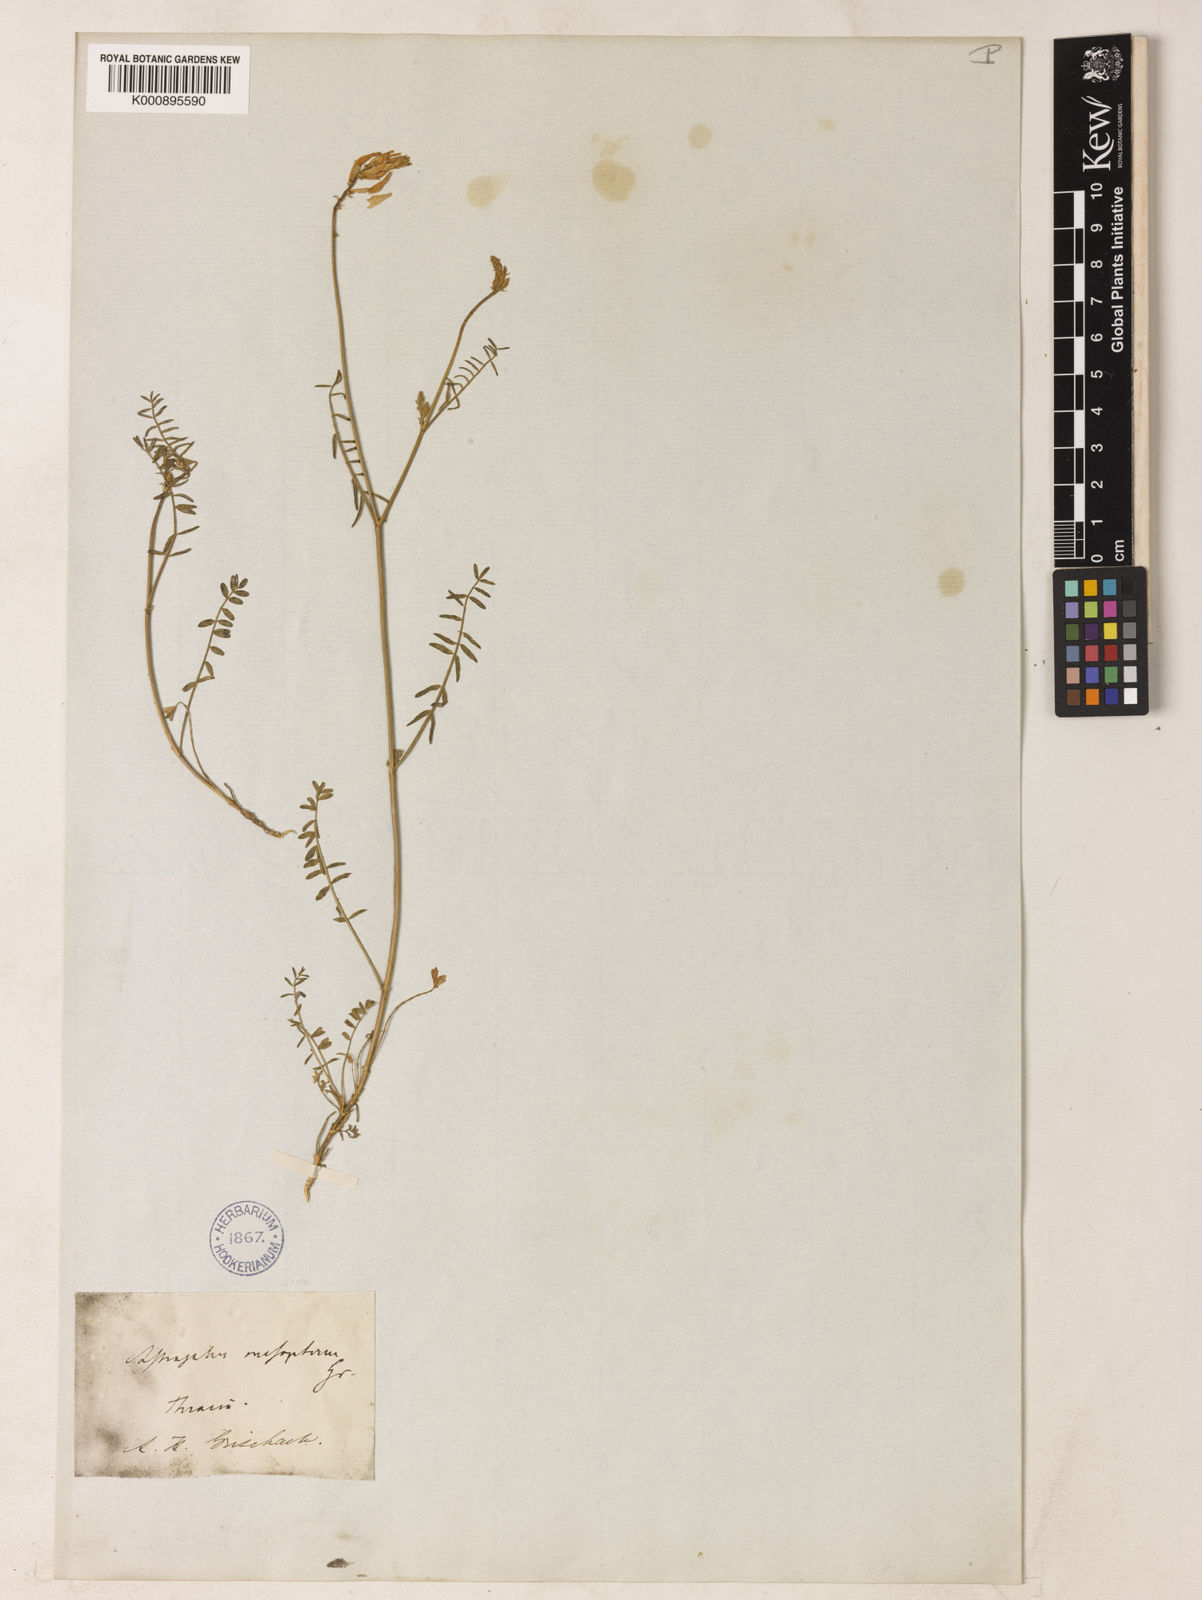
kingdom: Plantae
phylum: Tracheophyta
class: Magnoliopsida
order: Fabales
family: Fabaceae
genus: Astragalus
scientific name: Astragalus mesopterus
